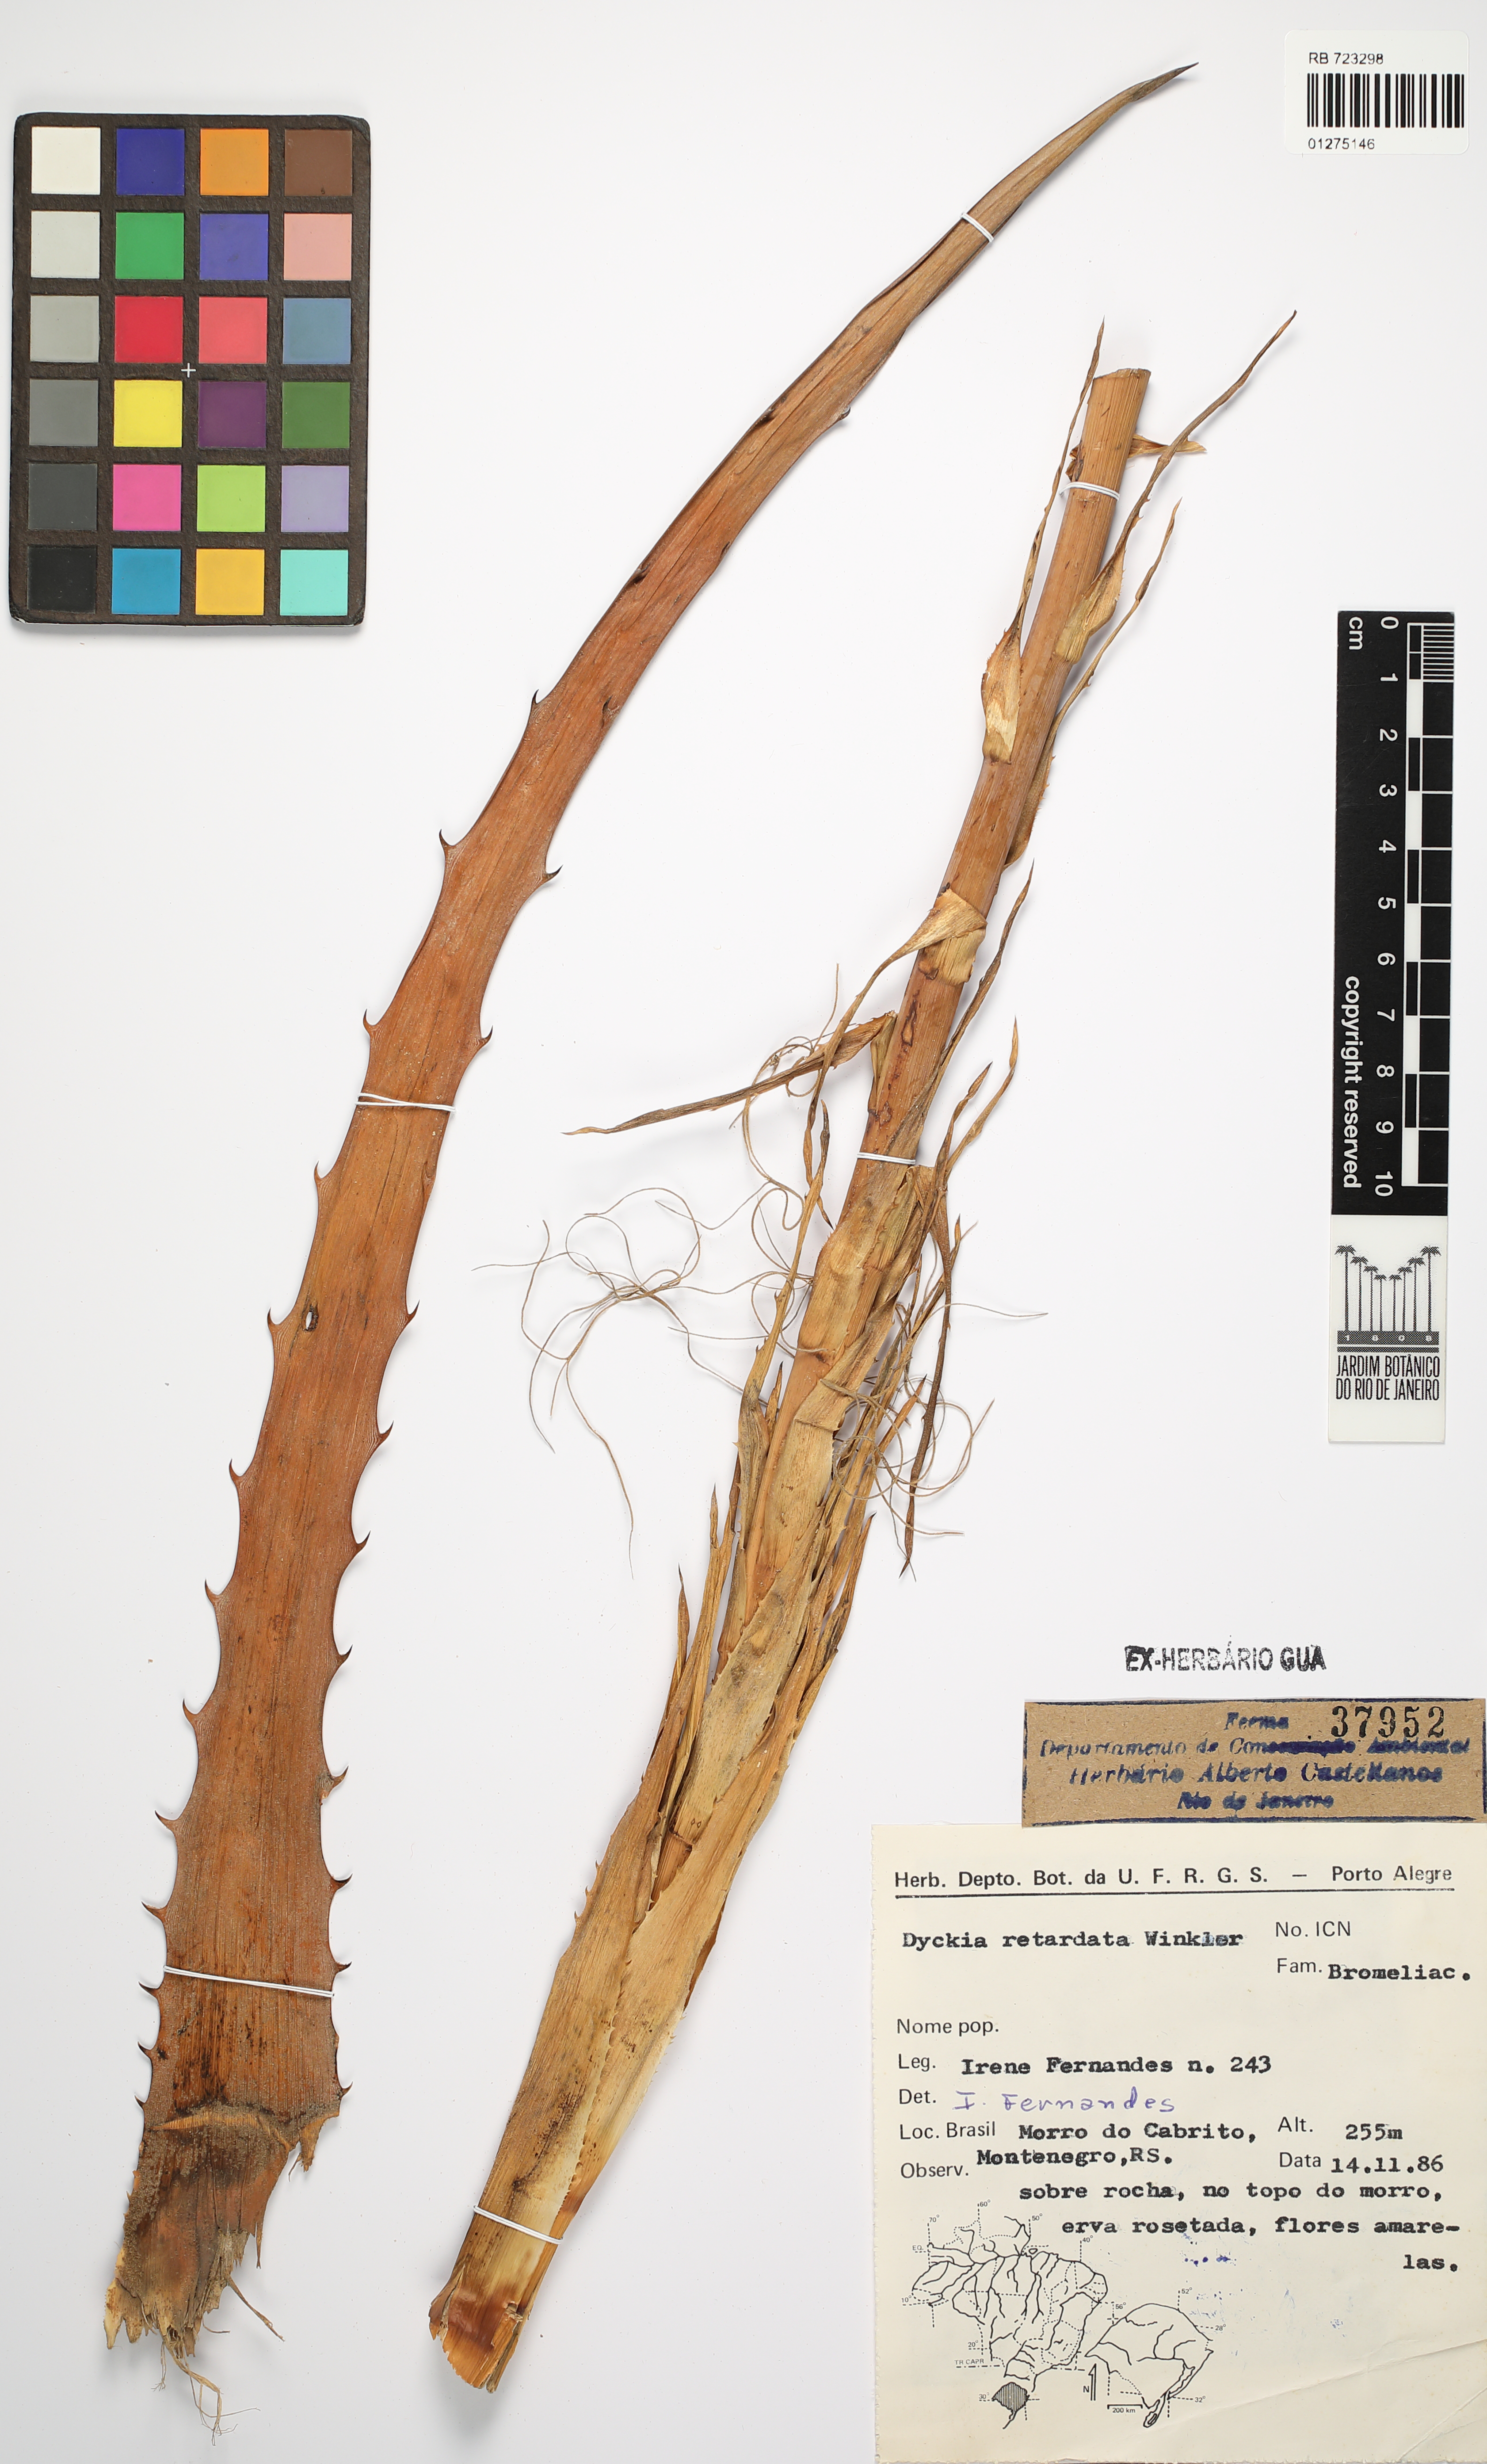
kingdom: Plantae
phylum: Tracheophyta
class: Liliopsida
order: Poales
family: Bromeliaceae
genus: Dyckia
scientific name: Dyckia retardata
